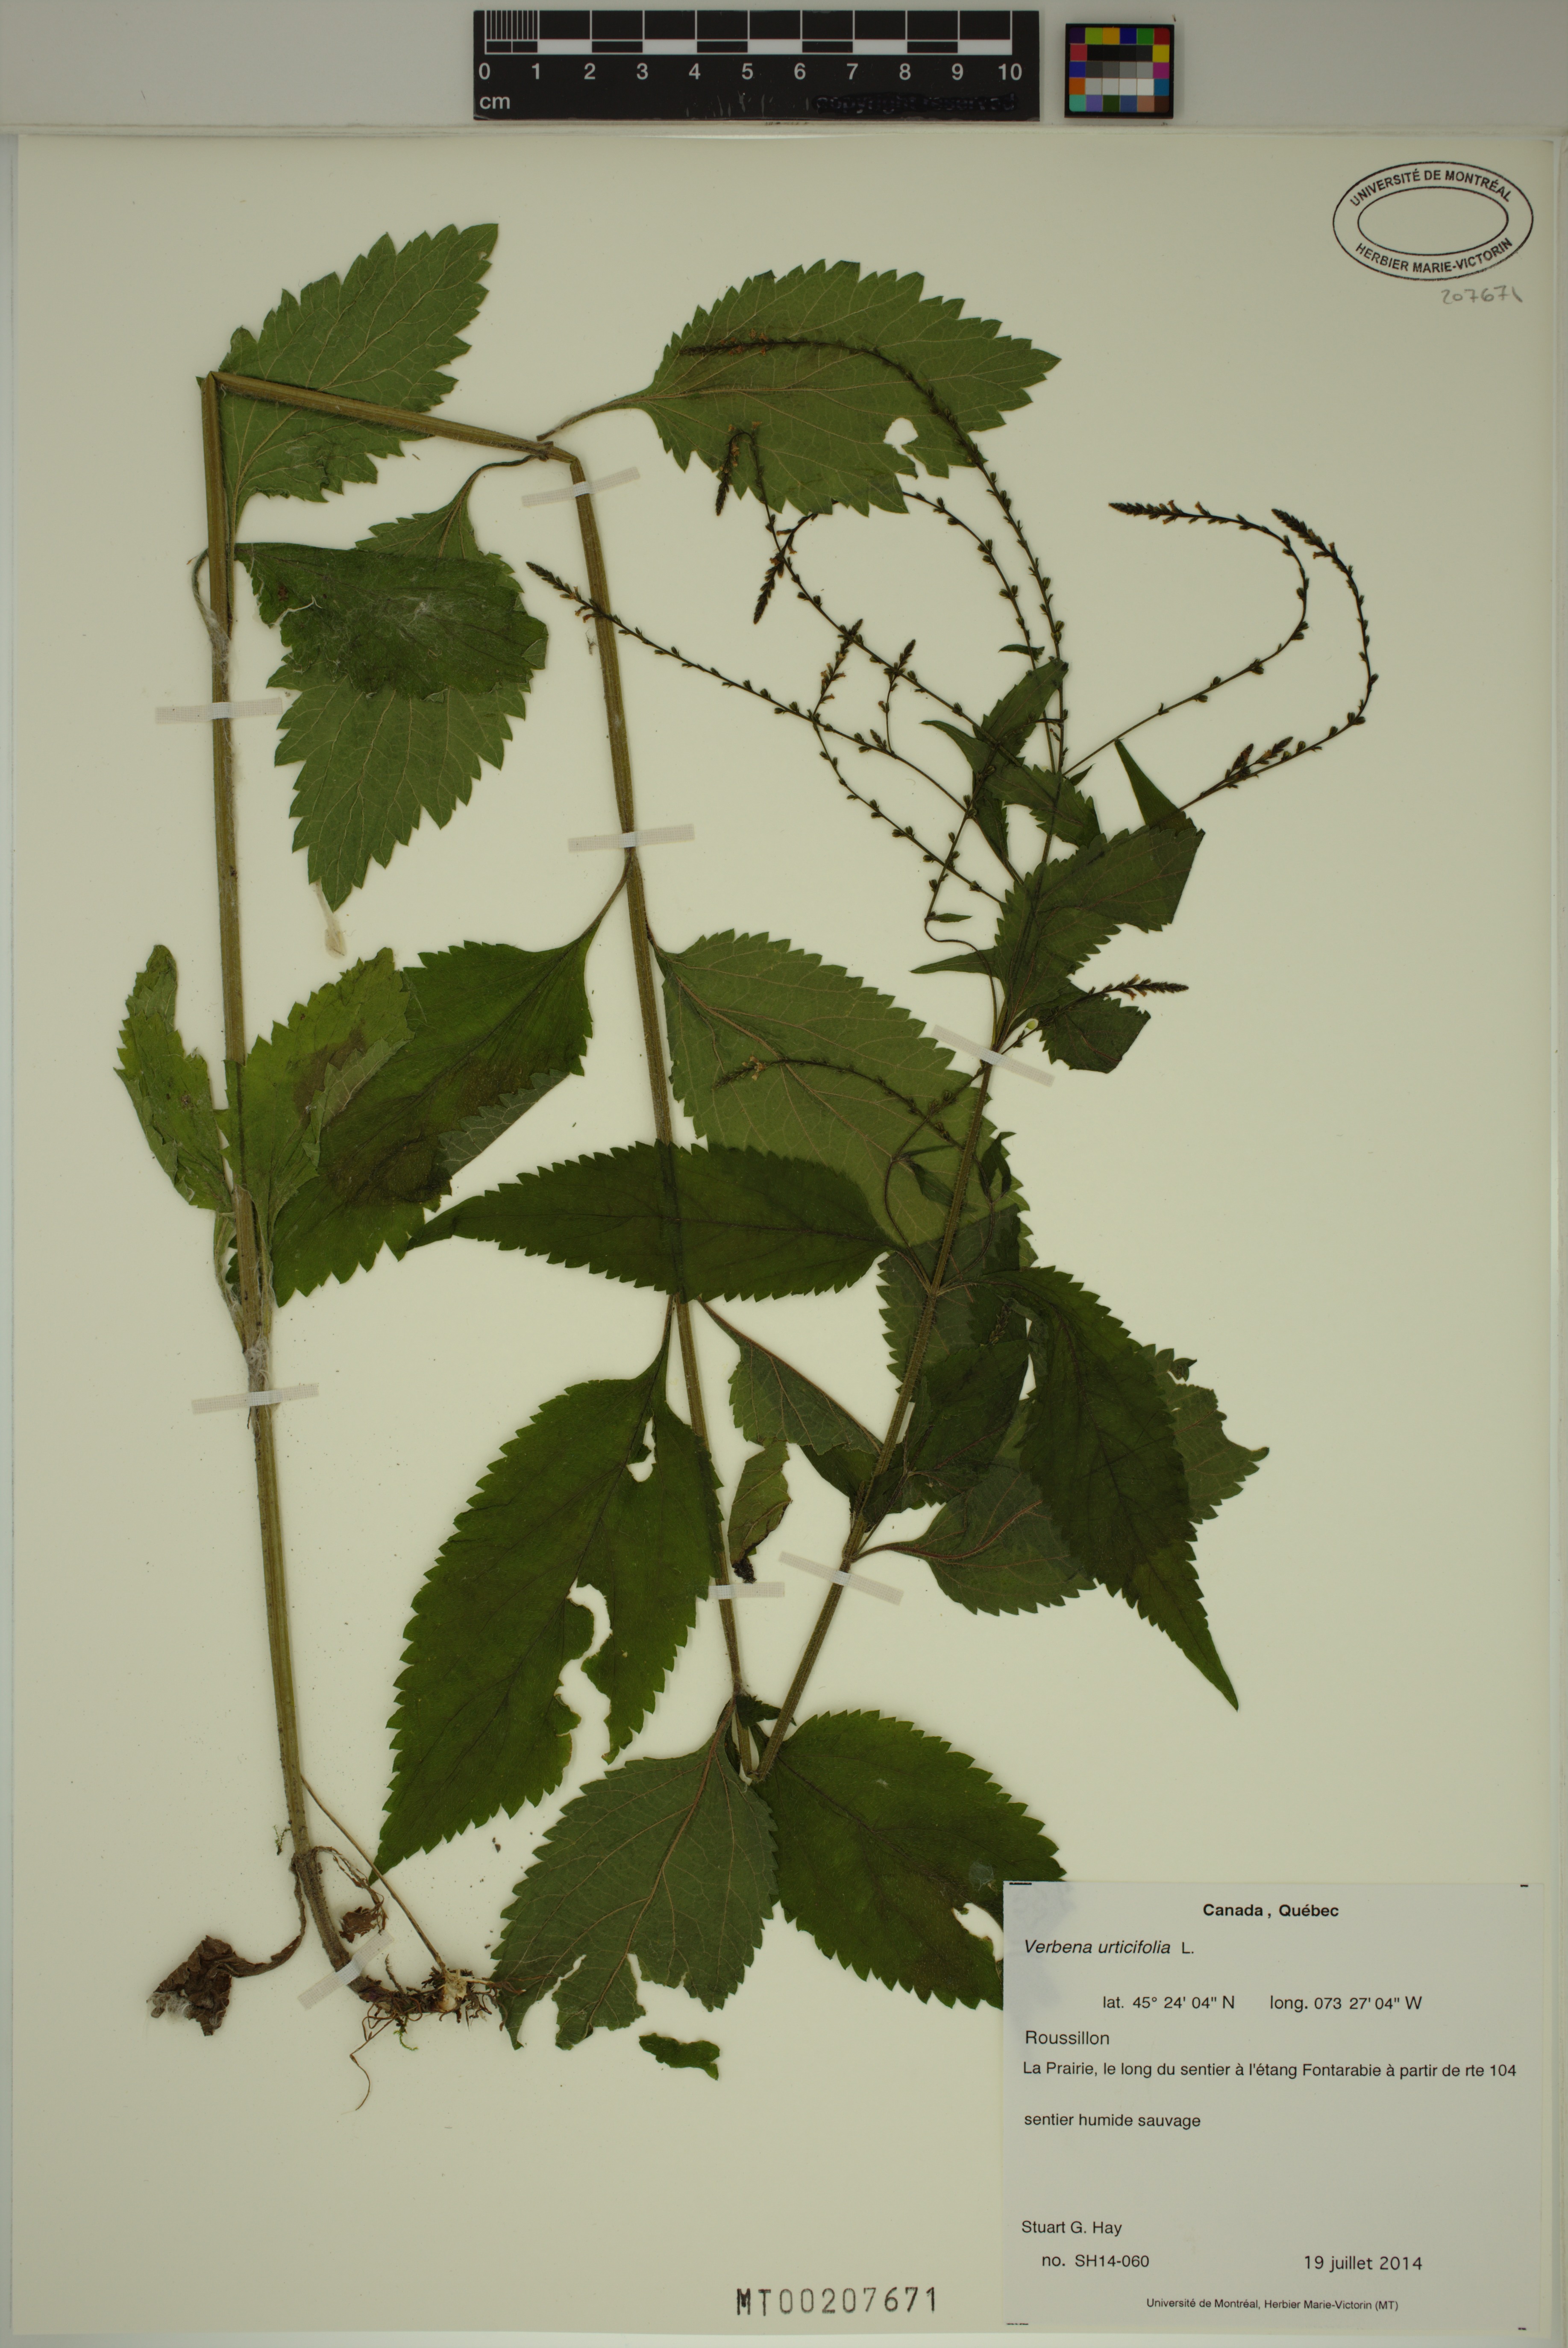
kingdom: Plantae
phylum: Tracheophyta
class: Magnoliopsida
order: Lamiales
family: Verbenaceae
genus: Verbena
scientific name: Verbena urticifolia
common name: Nettle-leaved vervain
